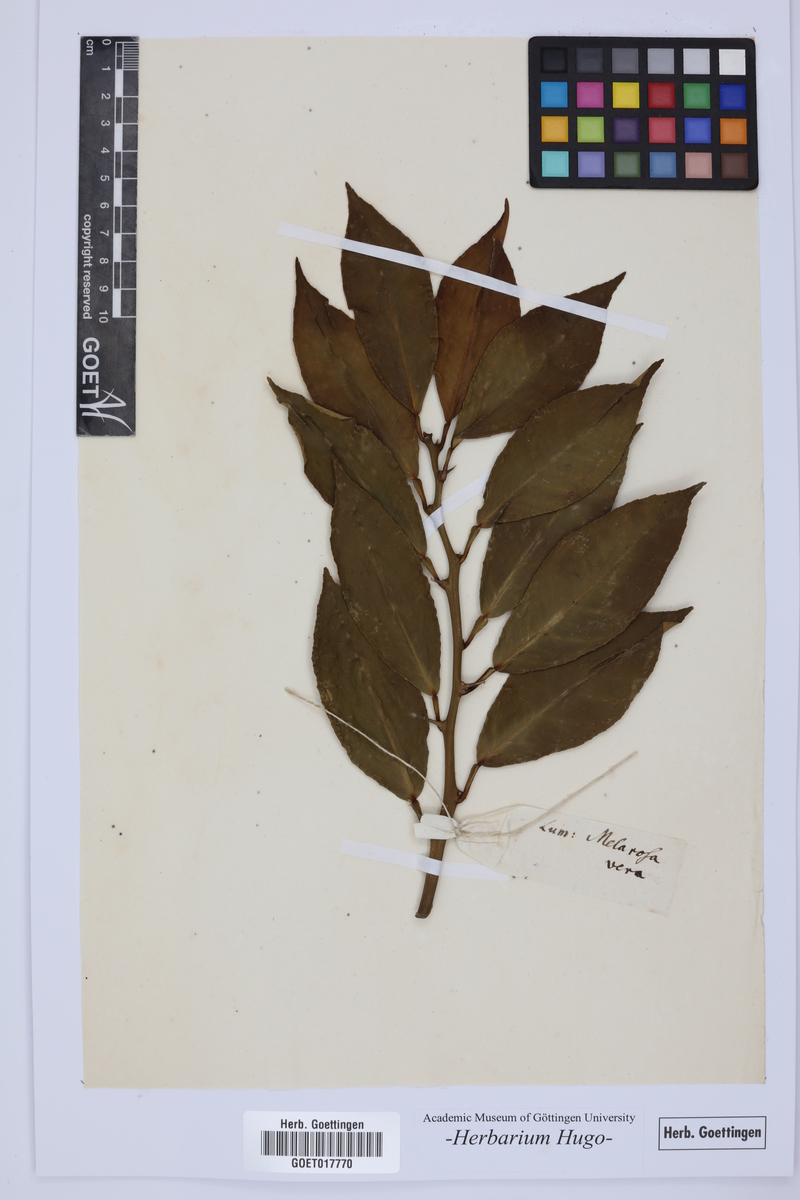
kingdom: Plantae
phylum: Tracheophyta
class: Magnoliopsida
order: Sapindales
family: Rutaceae
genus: Citrus
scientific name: Citrus
